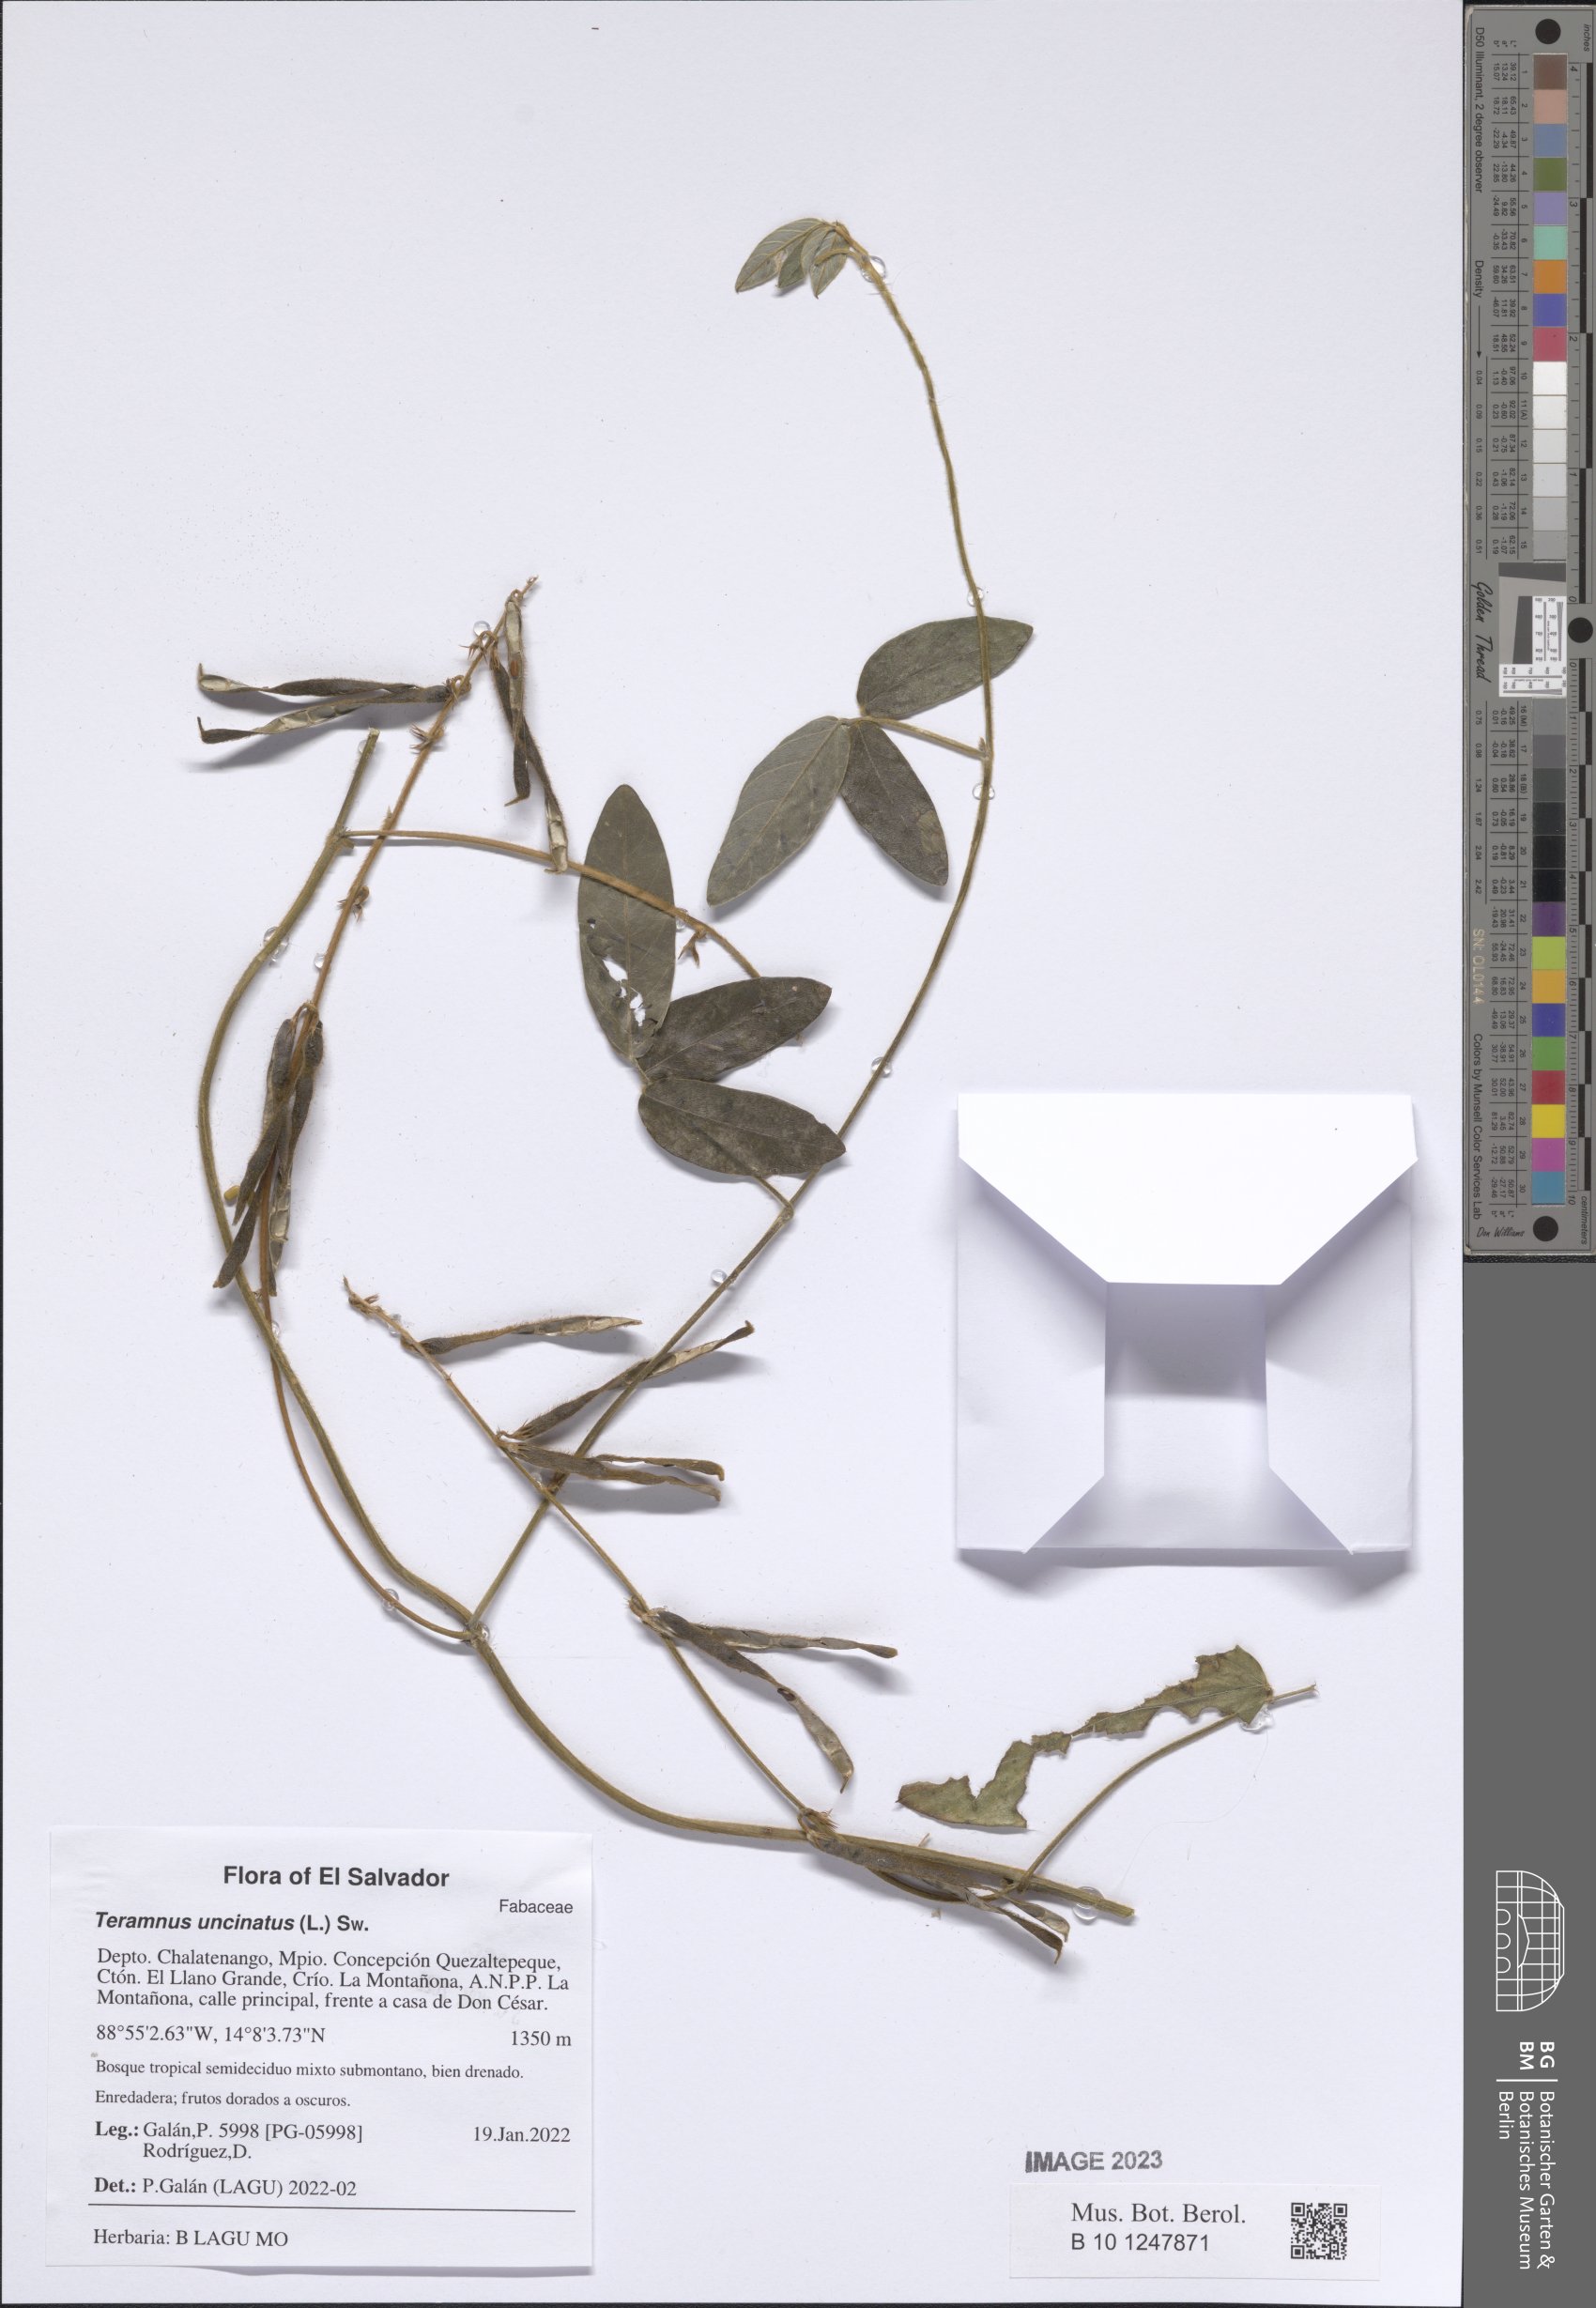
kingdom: Plantae
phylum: Tracheophyta
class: Magnoliopsida
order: Fabales
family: Fabaceae
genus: Teramnus
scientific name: Teramnus uncinatus
